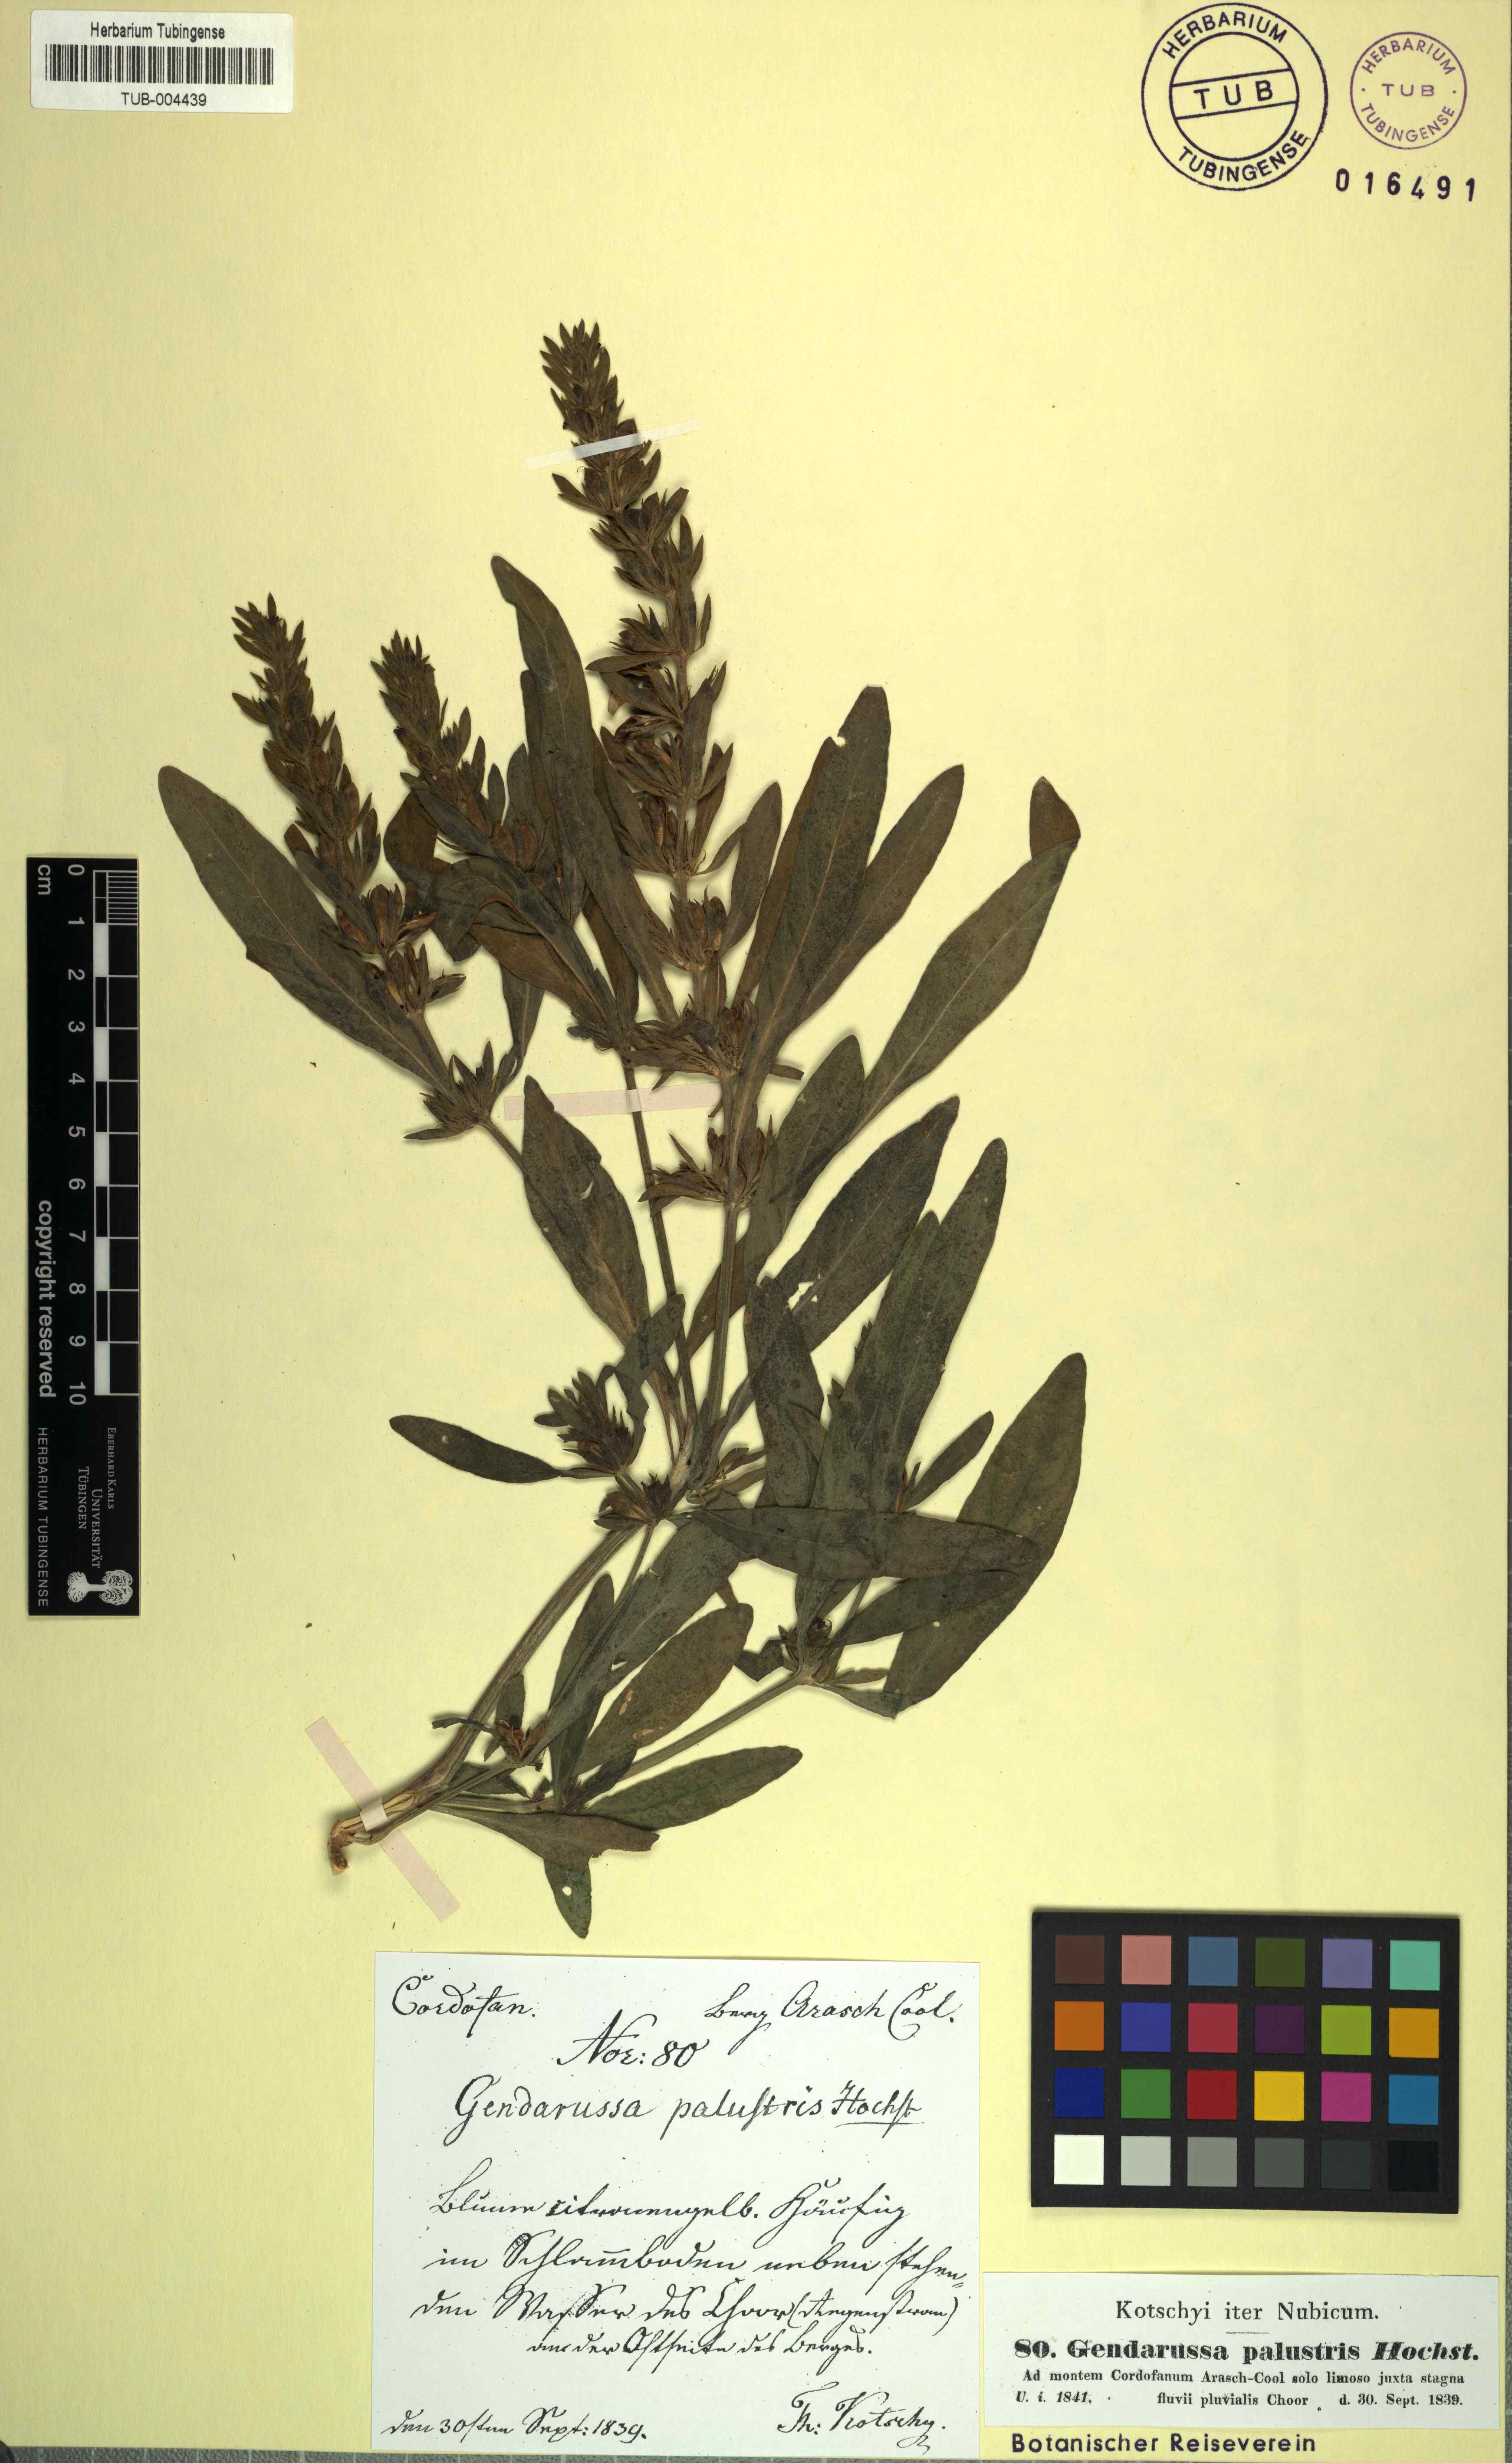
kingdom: Plantae
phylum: Tracheophyta
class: Magnoliopsida
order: Lamiales
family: Acanthaceae
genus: Justicia
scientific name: Justicia flava
